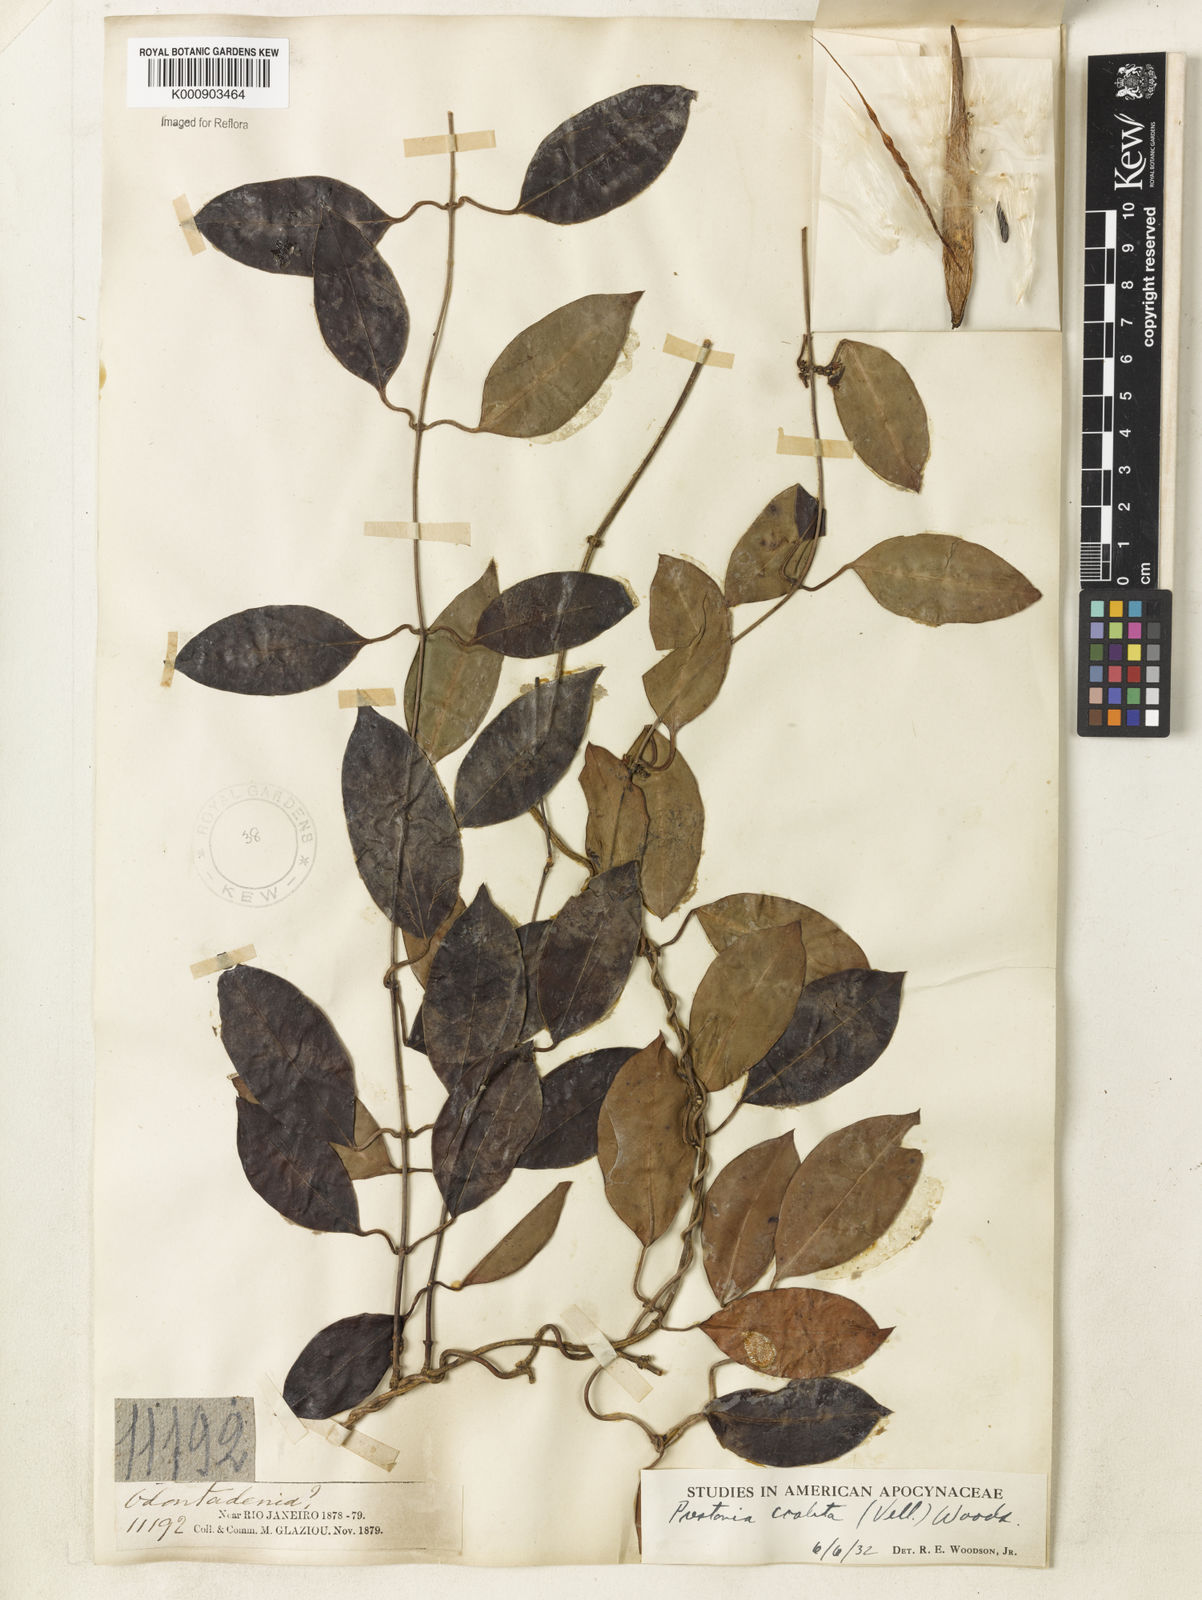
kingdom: Plantae
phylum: Tracheophyta
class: Magnoliopsida
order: Gentianales
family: Apocynaceae
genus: Prestonia
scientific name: Prestonia coalita
